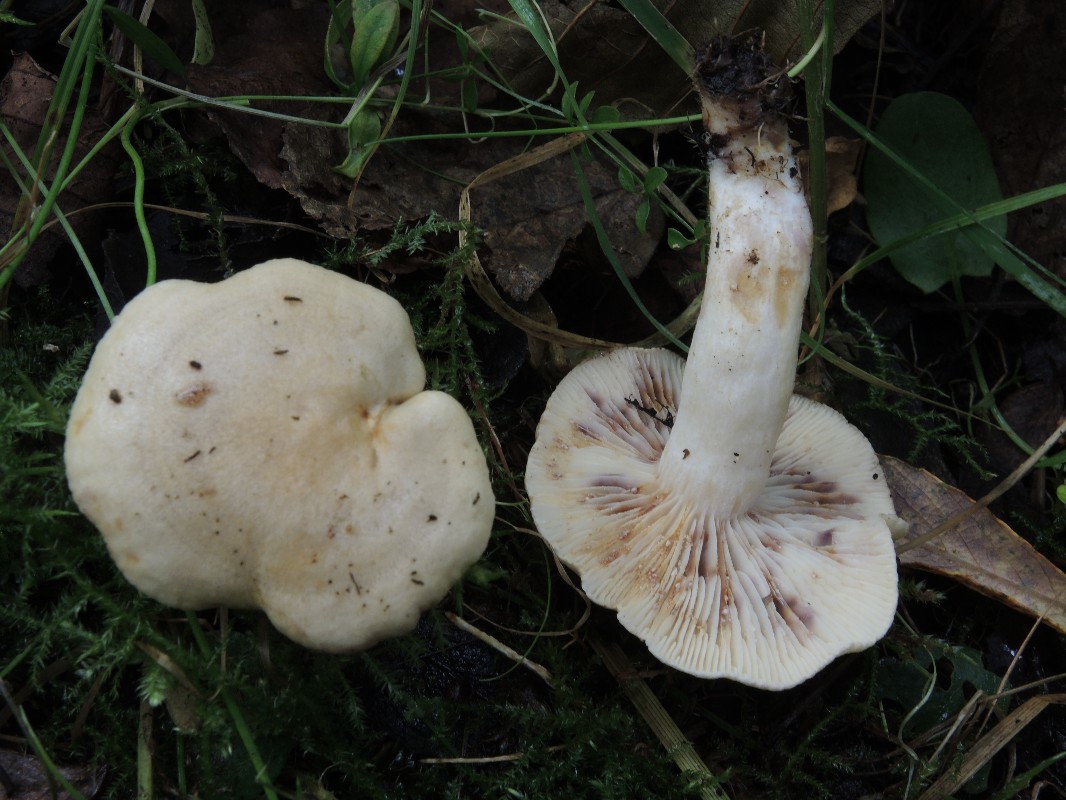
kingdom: Fungi
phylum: Basidiomycota
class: Agaricomycetes
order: Russulales
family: Russulaceae
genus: Lactarius
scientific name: Lactarius aspideus
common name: pile-mælkehat
